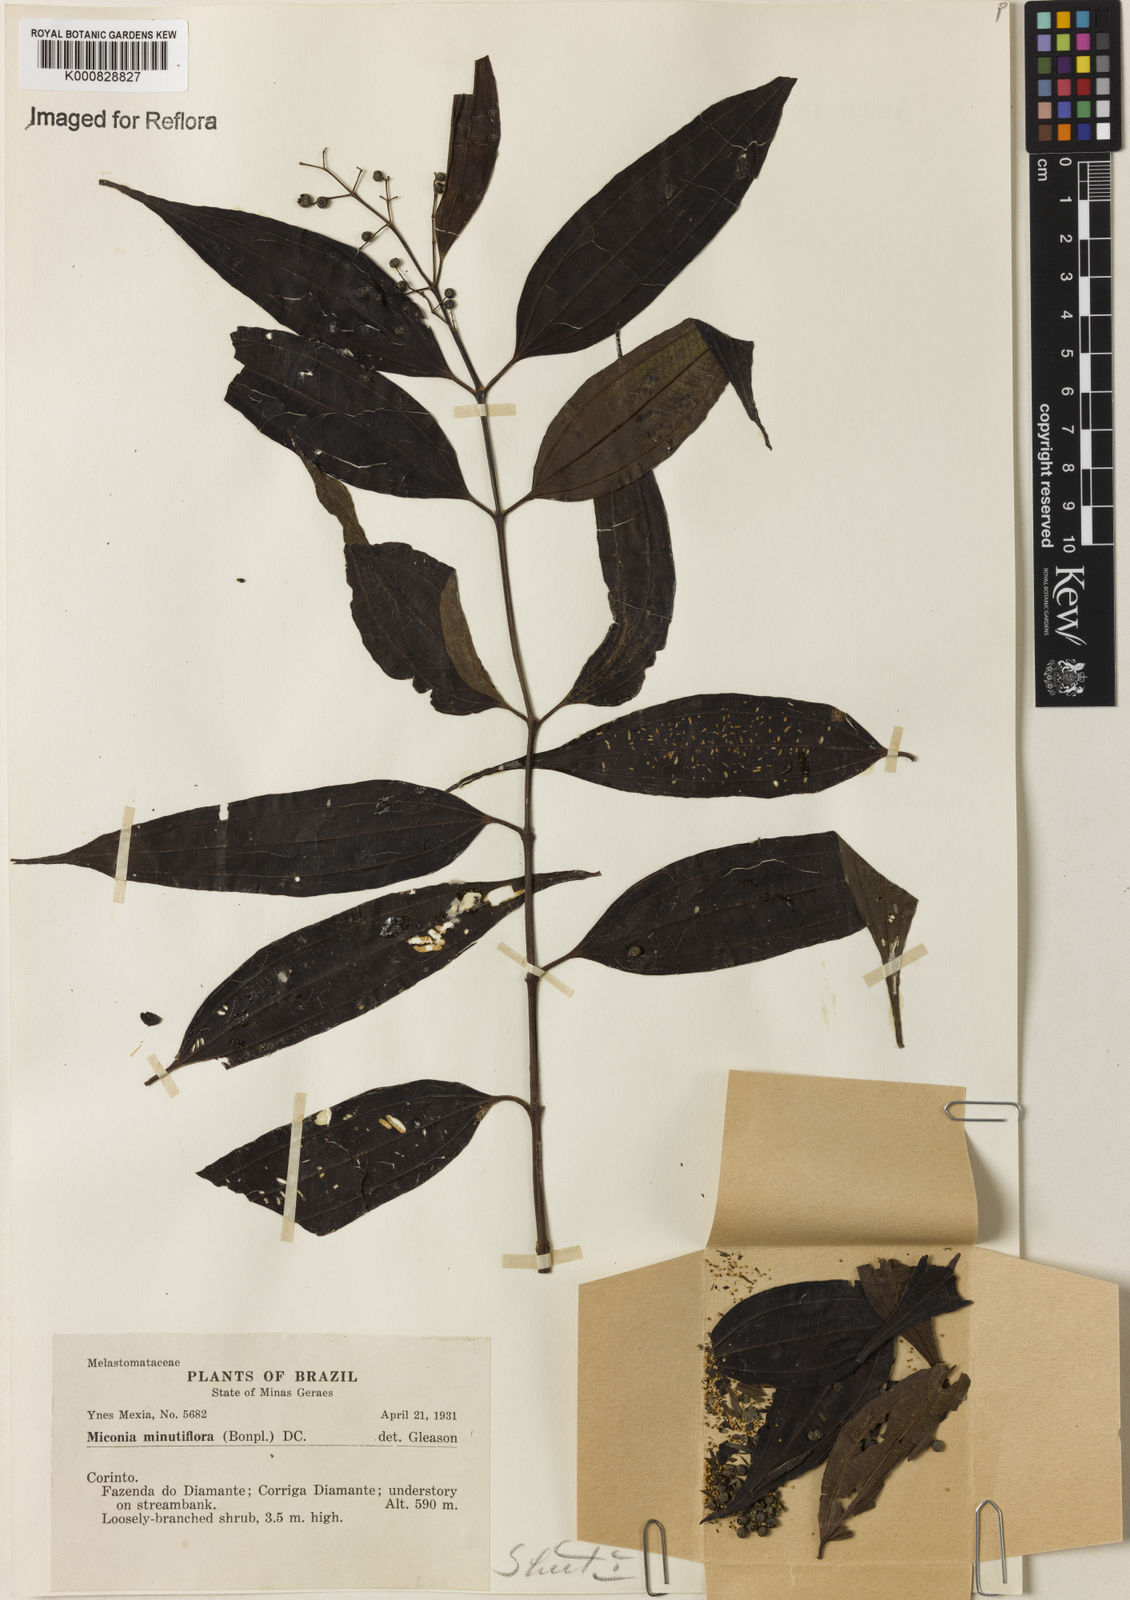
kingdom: Plantae
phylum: Tracheophyta
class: Magnoliopsida
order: Myrtales
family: Melastomataceae
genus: Miconia
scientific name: Miconia minutiflora
